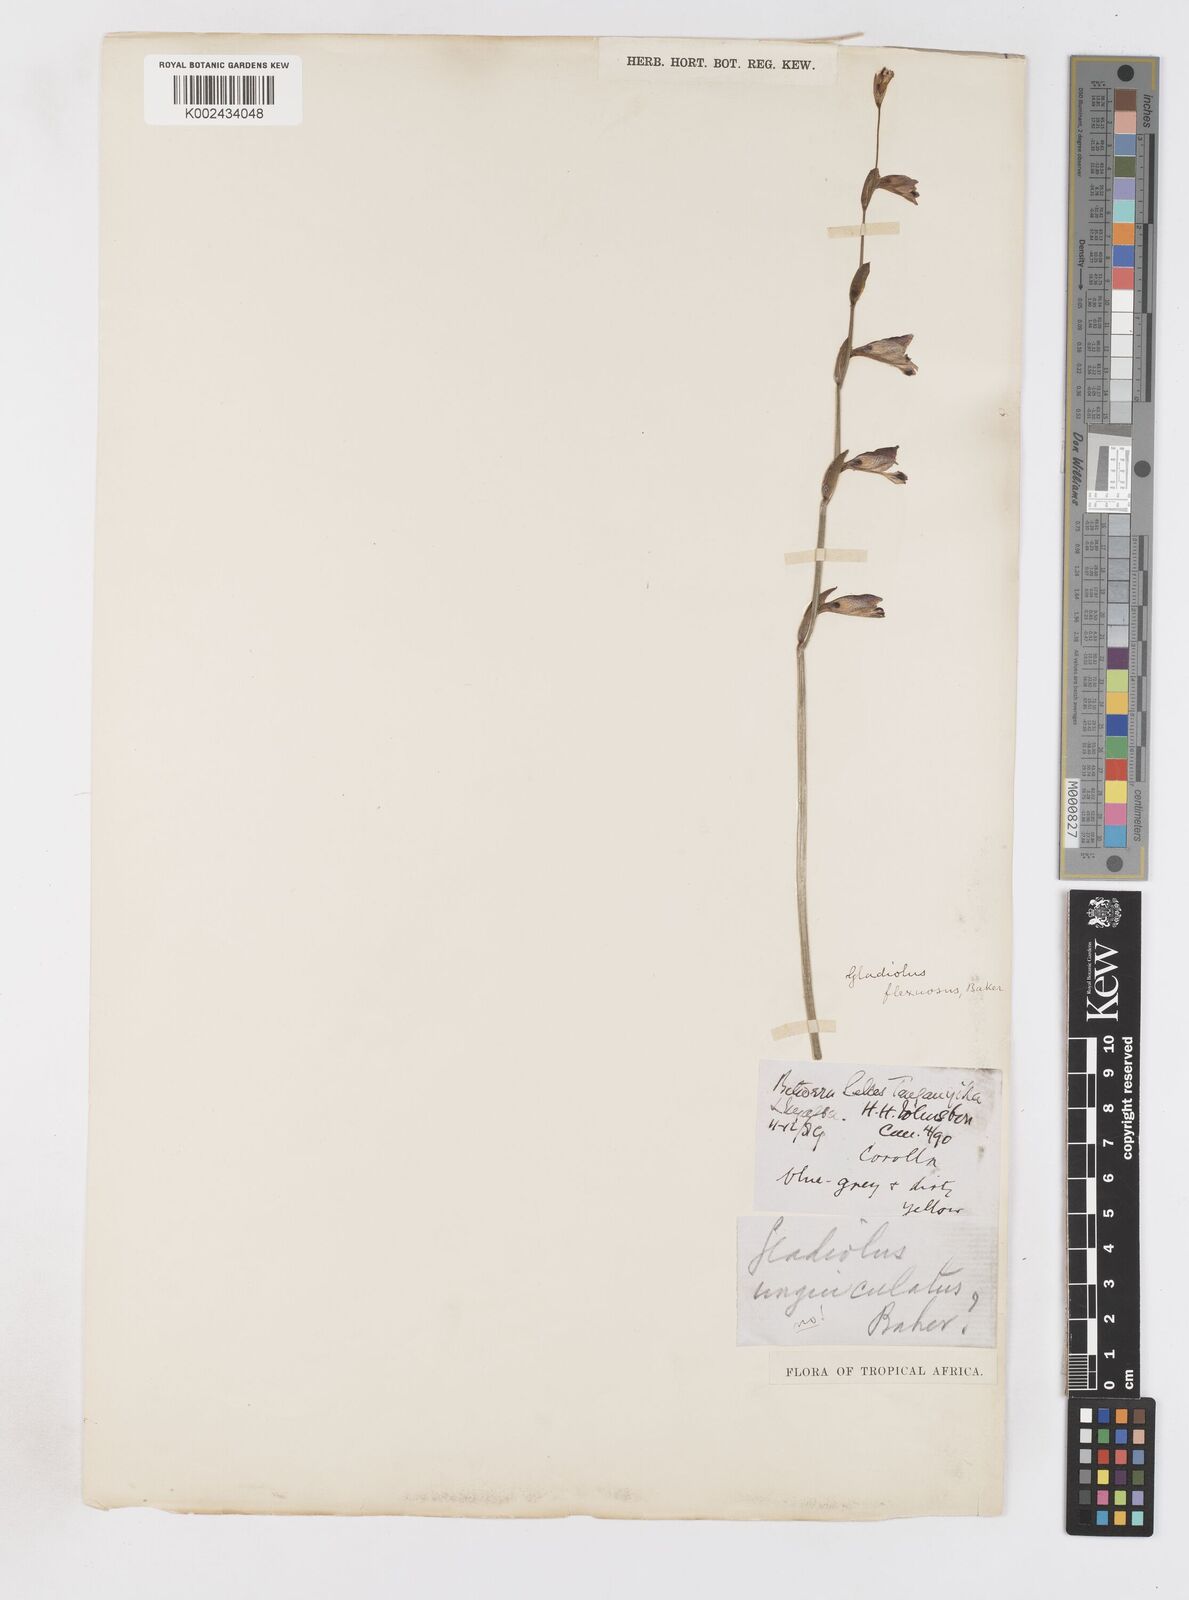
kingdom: Plantae
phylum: Tracheophyta
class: Liliopsida
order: Asparagales
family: Iridaceae
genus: Gladiolus
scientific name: Gladiolus atropurpureus
